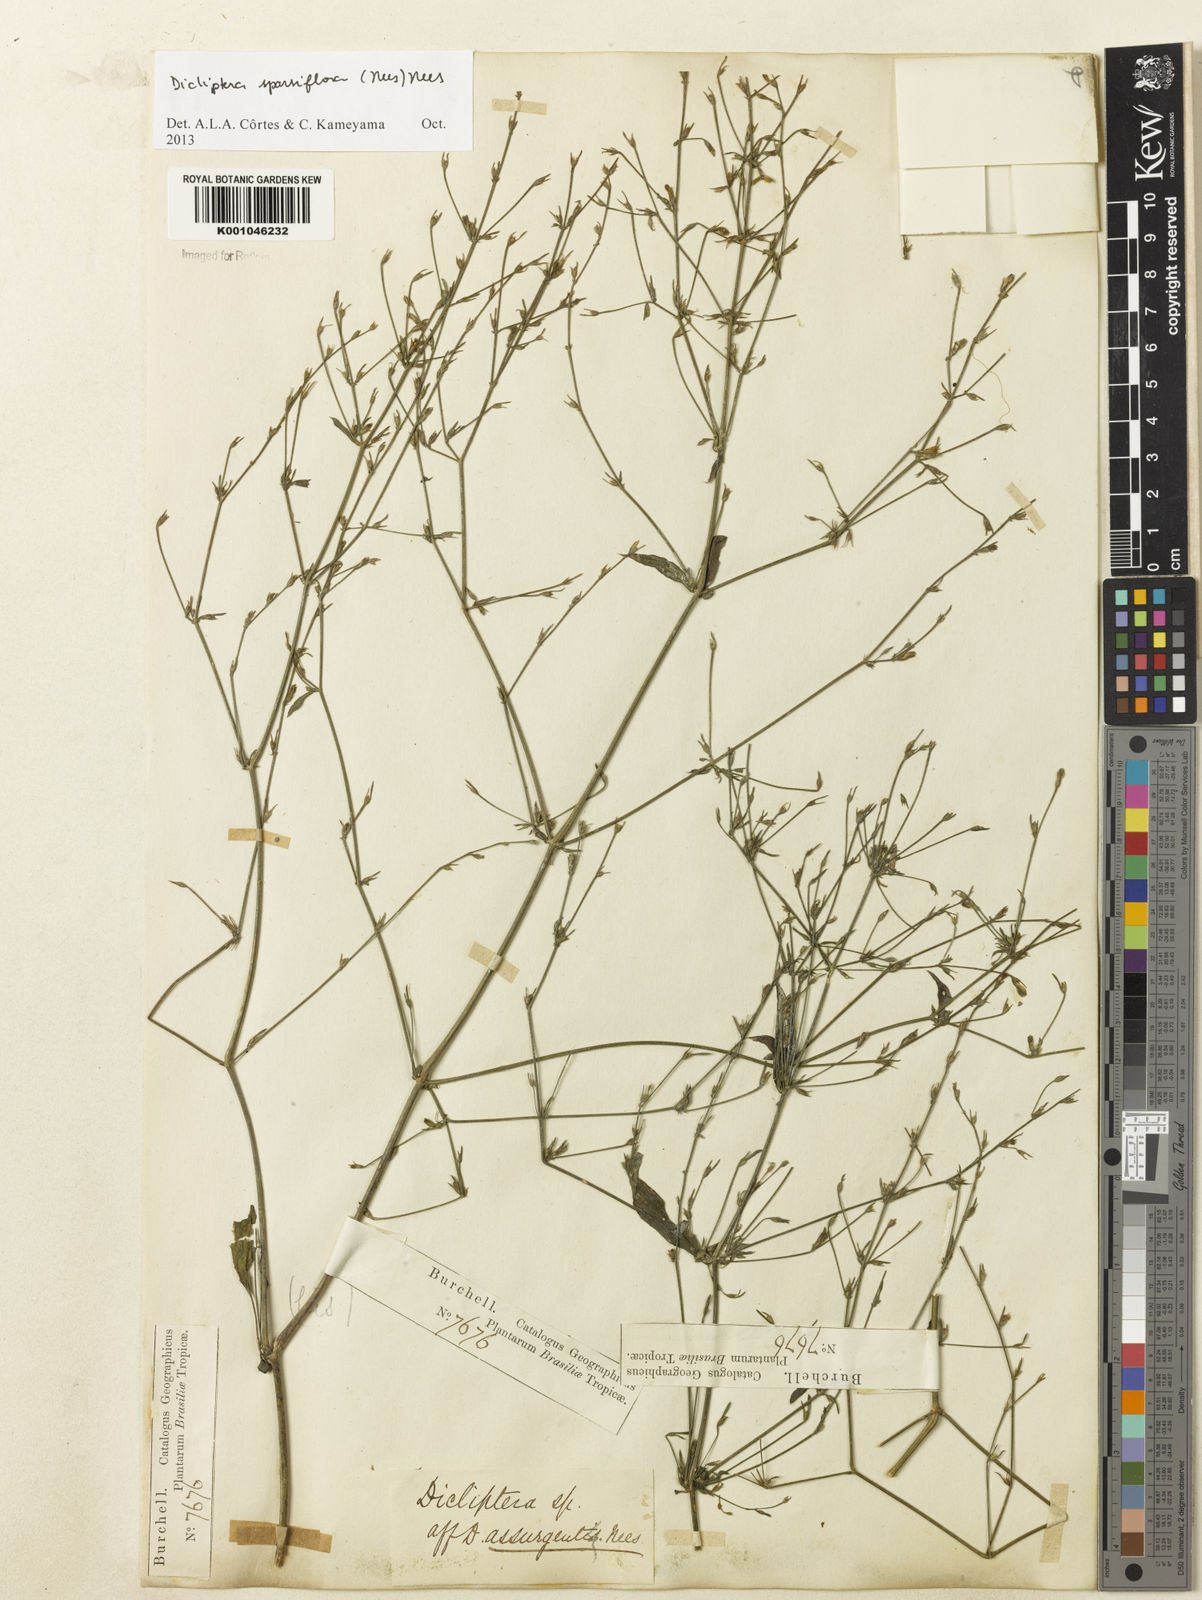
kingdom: Plantae
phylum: Tracheophyta
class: Magnoliopsida
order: Lamiales
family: Acanthaceae
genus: Dicliptera
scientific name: Dicliptera sparsiflora
